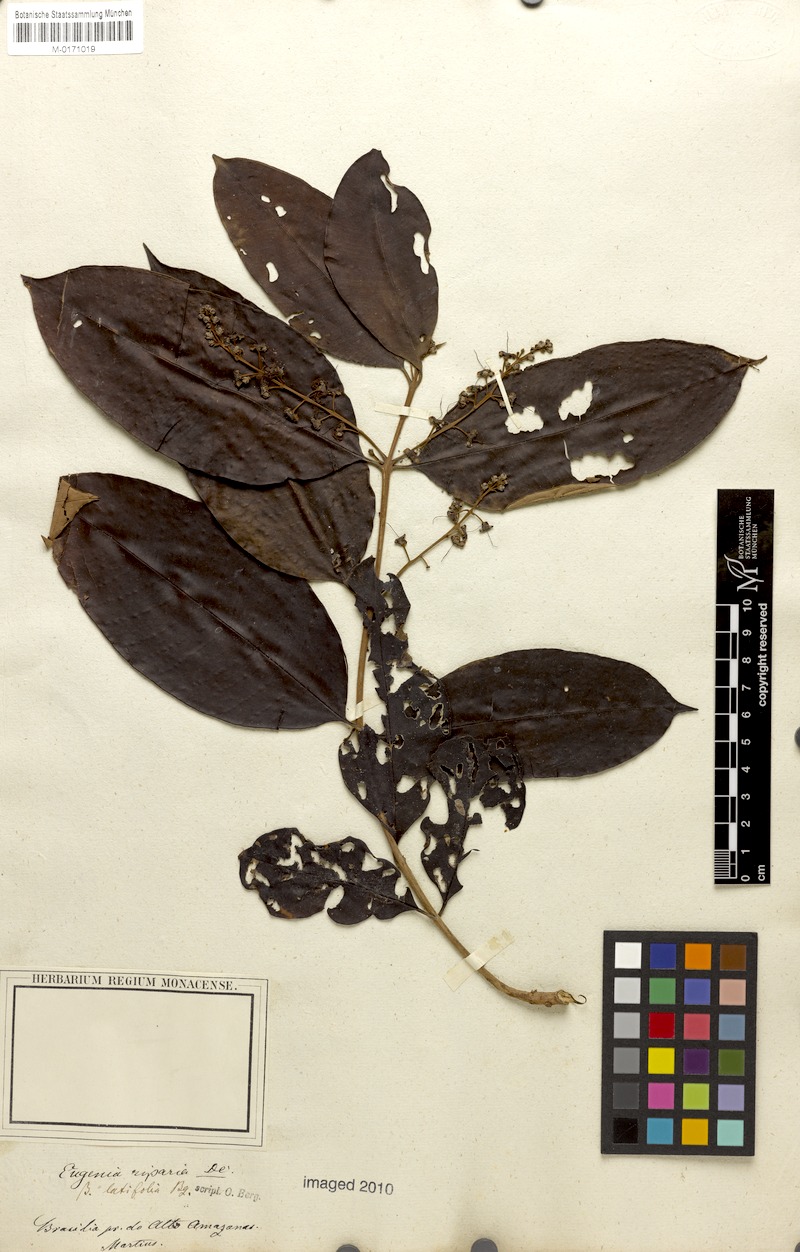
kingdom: Plantae
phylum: Tracheophyta
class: Magnoliopsida
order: Myrtales
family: Myrtaceae
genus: Eugenia
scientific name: Eugenia patens
